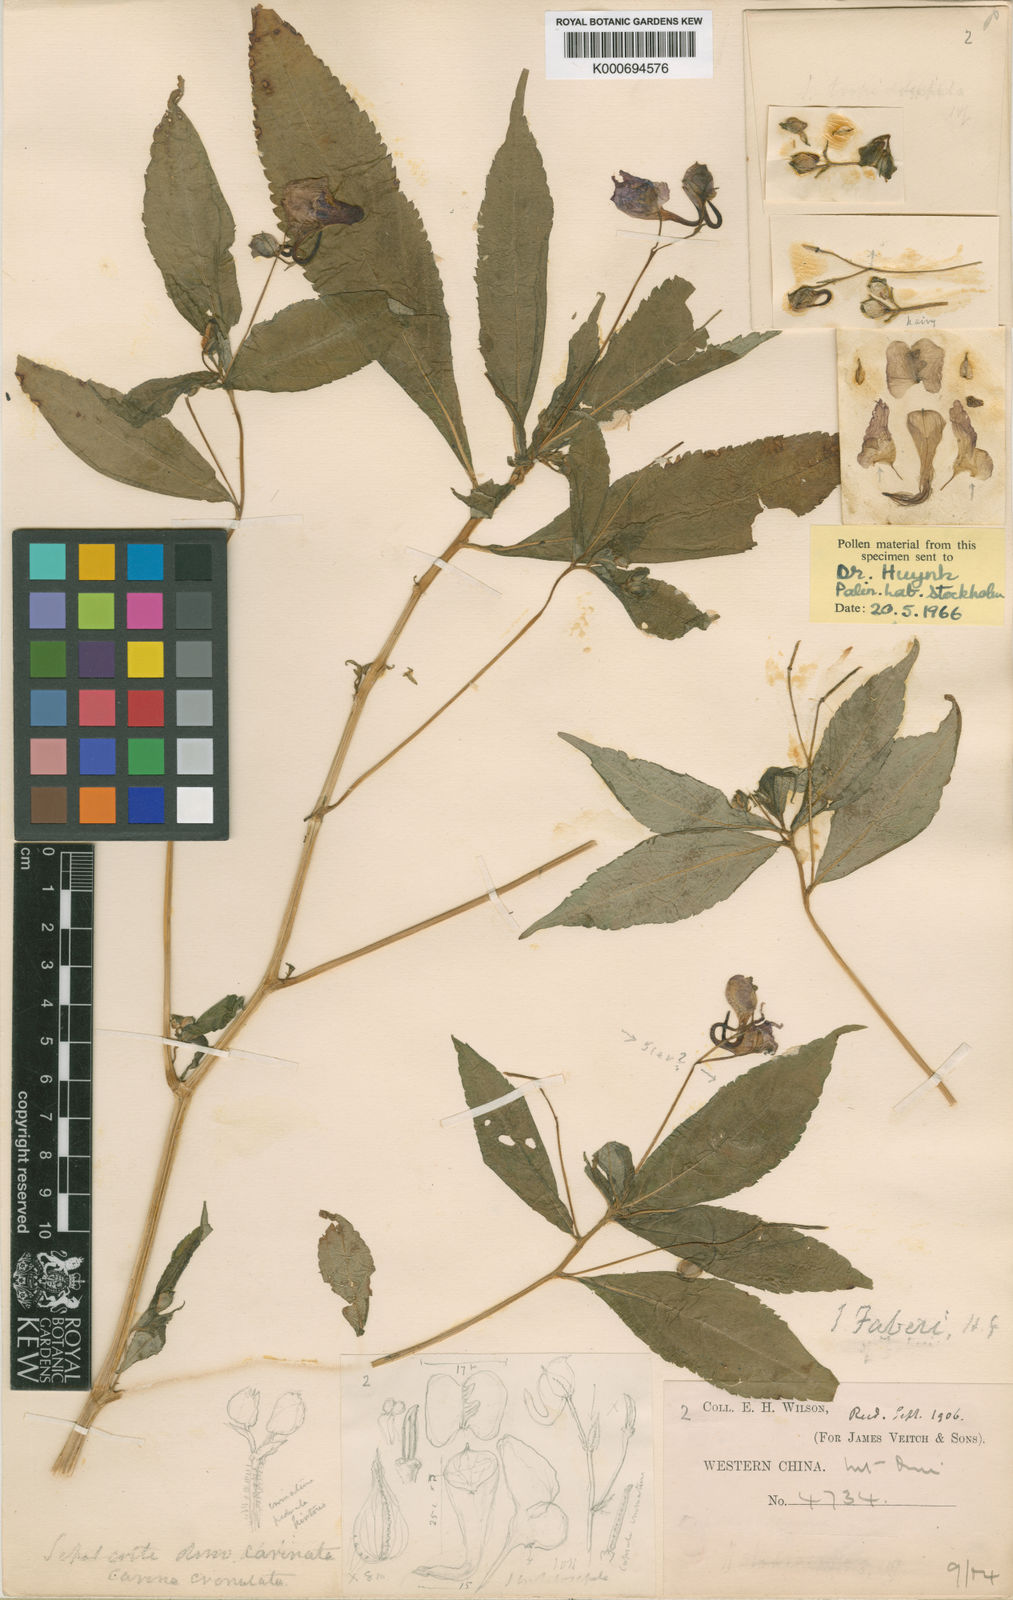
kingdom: Plantae
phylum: Tracheophyta
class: Magnoliopsida
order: Ericales
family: Balsaminaceae
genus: Impatiens
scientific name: Impatiens faberi
